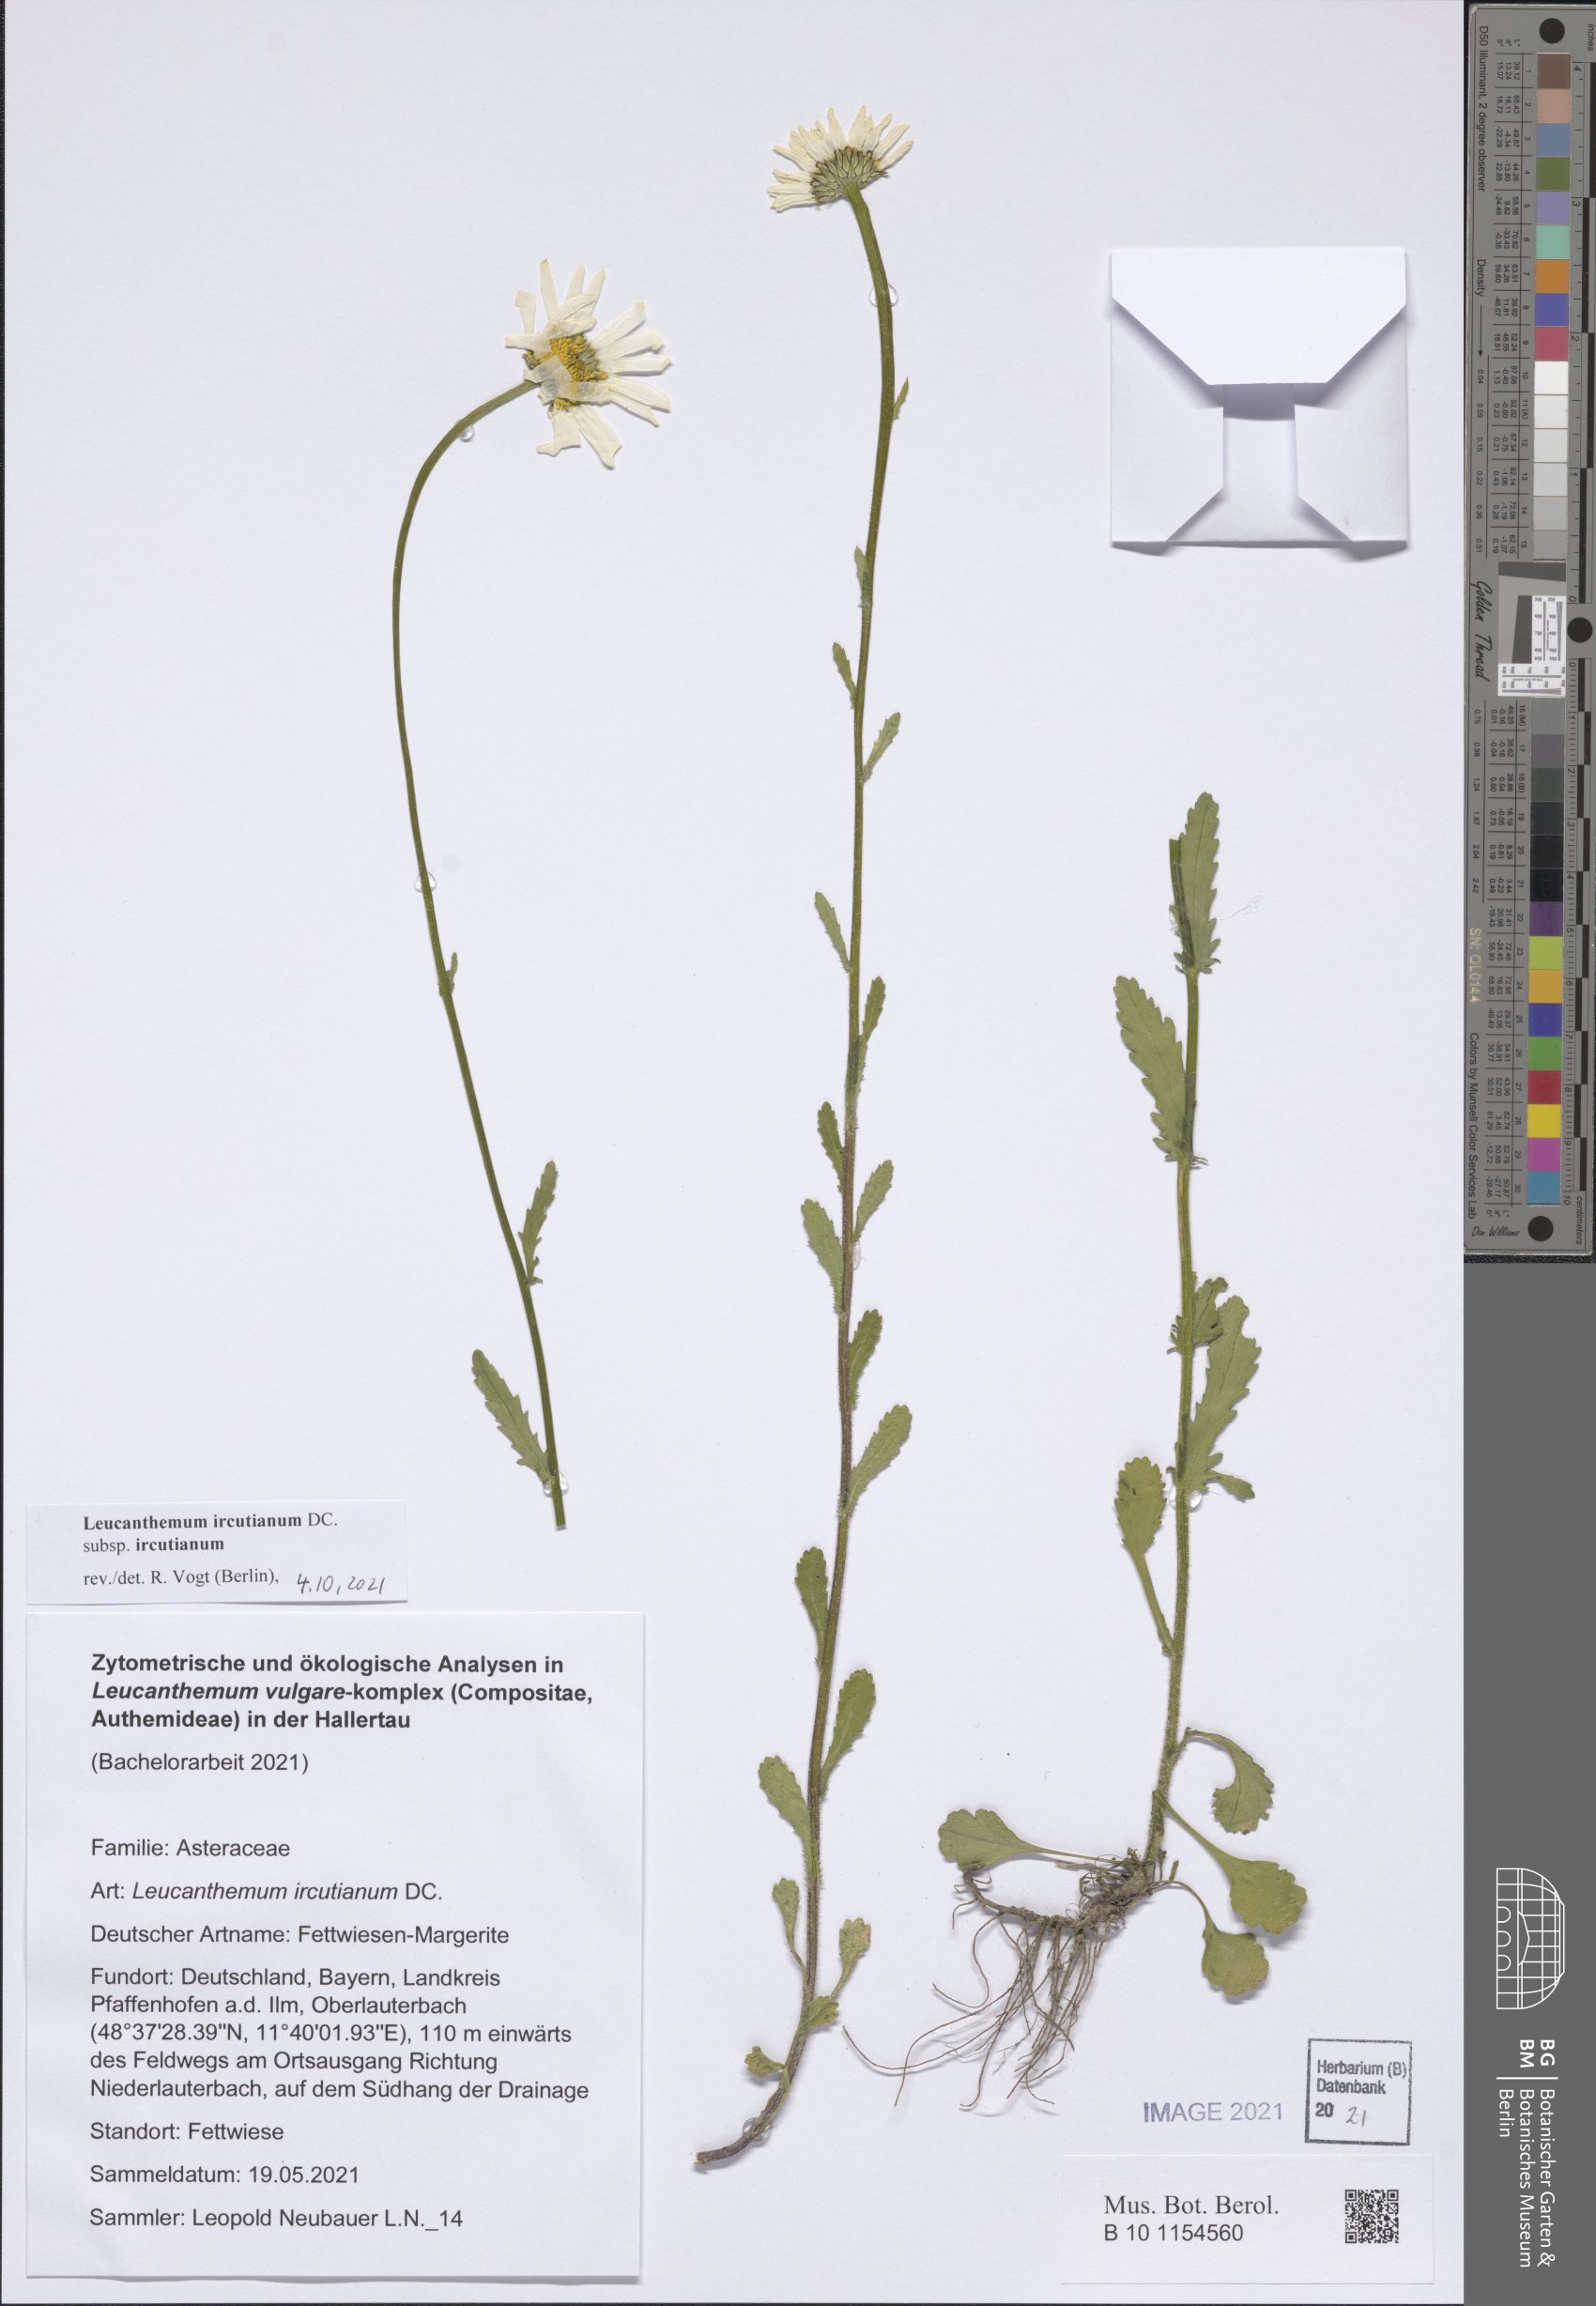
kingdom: Plantae
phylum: Tracheophyta
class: Magnoliopsida
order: Asterales
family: Asteraceae
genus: Leucanthemum
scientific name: Leucanthemum ircutianum
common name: Daisy
